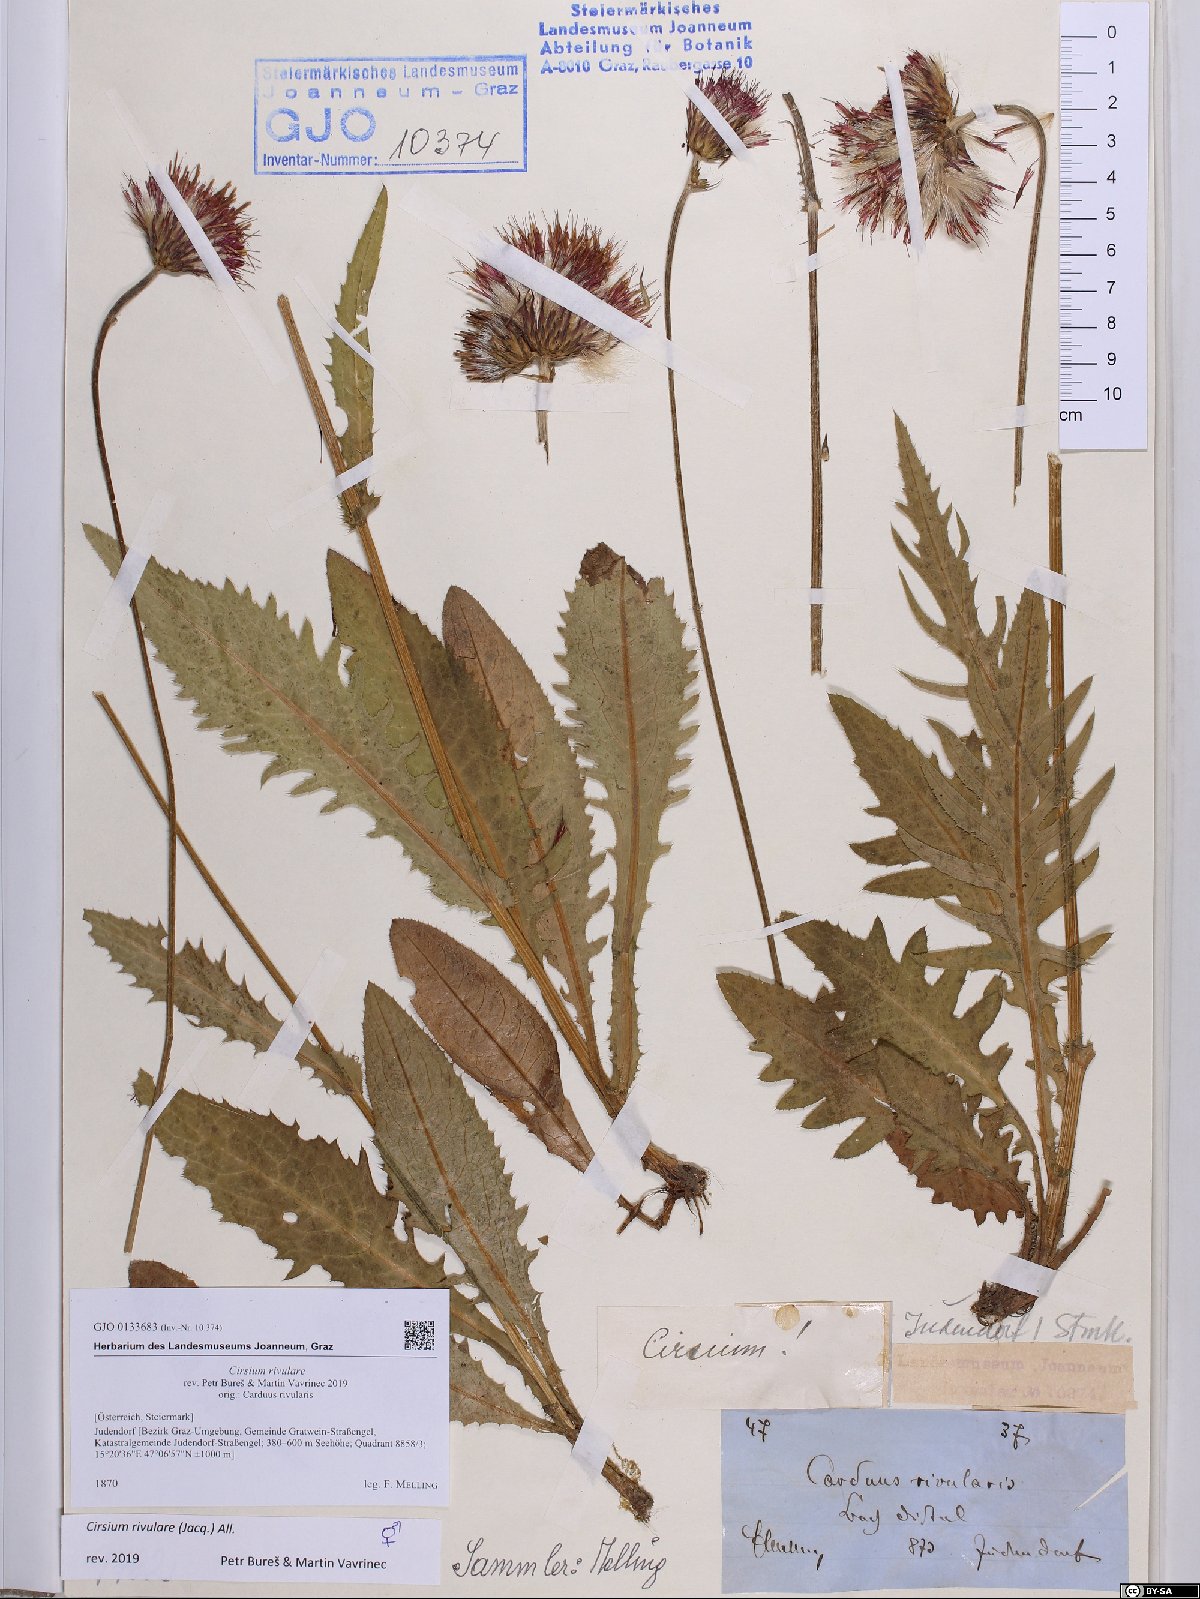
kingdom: Plantae
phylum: Tracheophyta
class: Magnoliopsida
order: Asterales
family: Asteraceae
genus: Cirsium
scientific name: Cirsium rivulare
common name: Brook thistle
